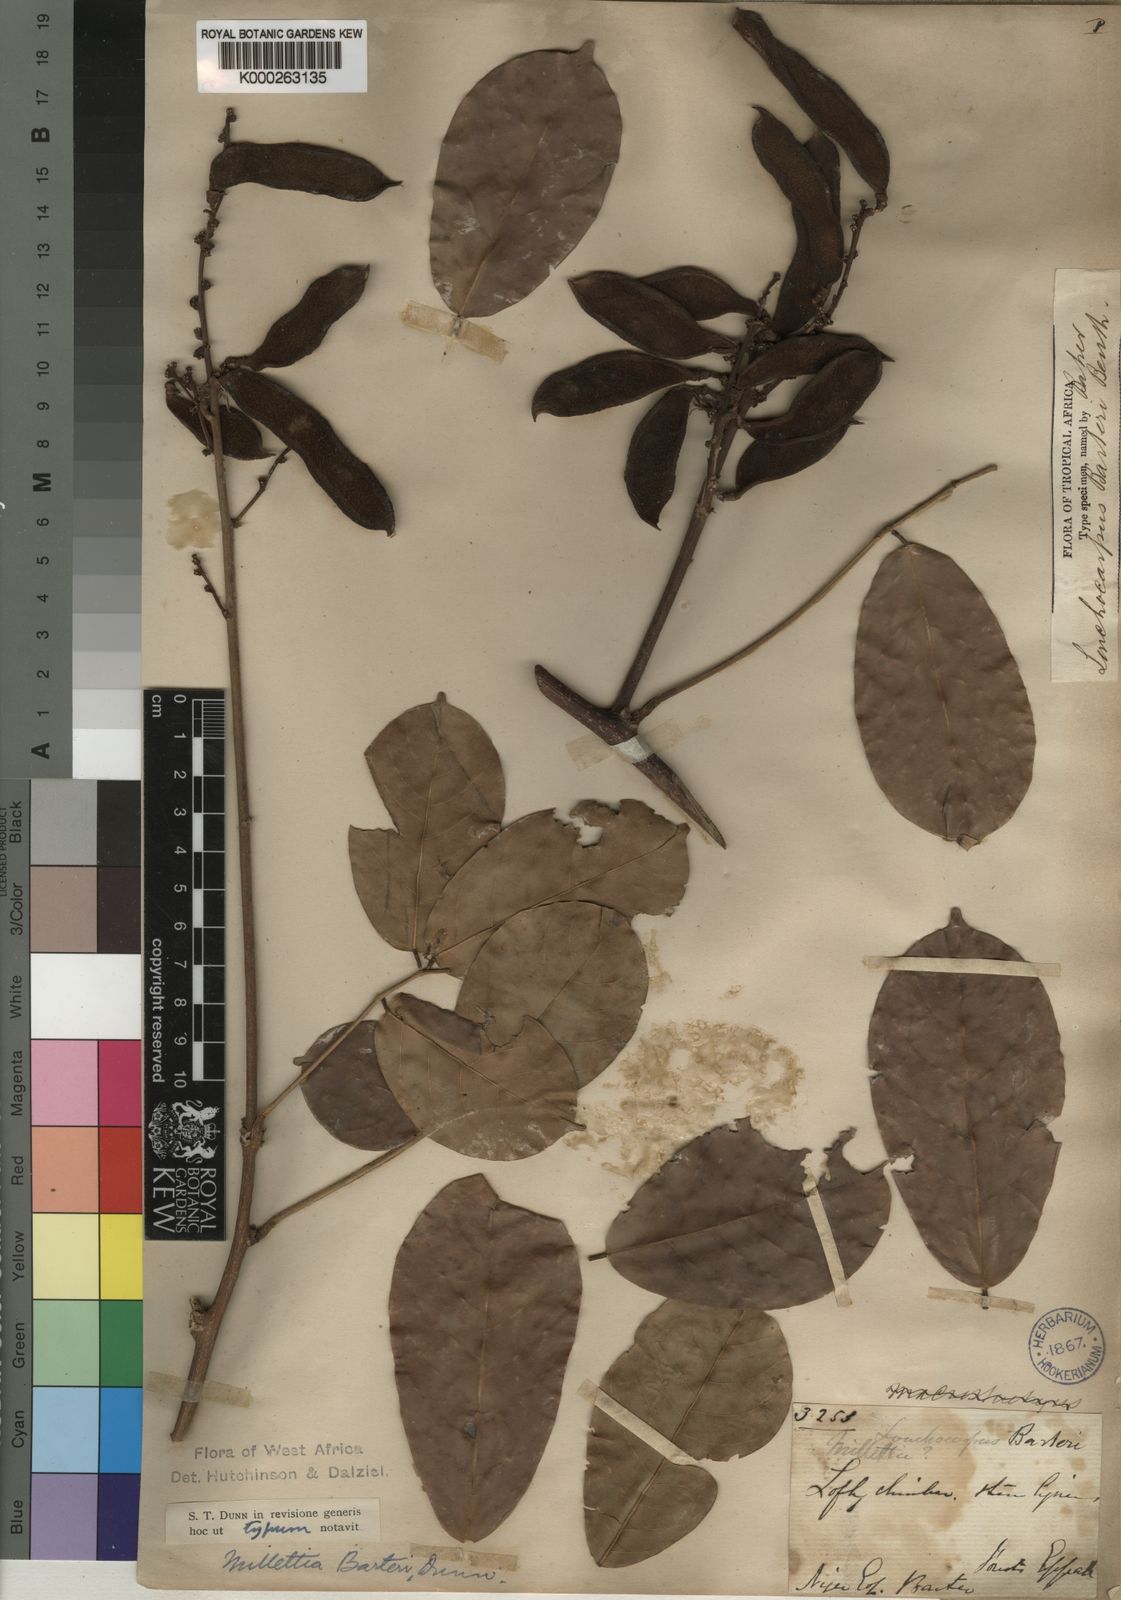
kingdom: Plantae
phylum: Tracheophyta
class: Magnoliopsida
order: Fabales
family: Fabaceae
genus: Millettia
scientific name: Millettia barteri
